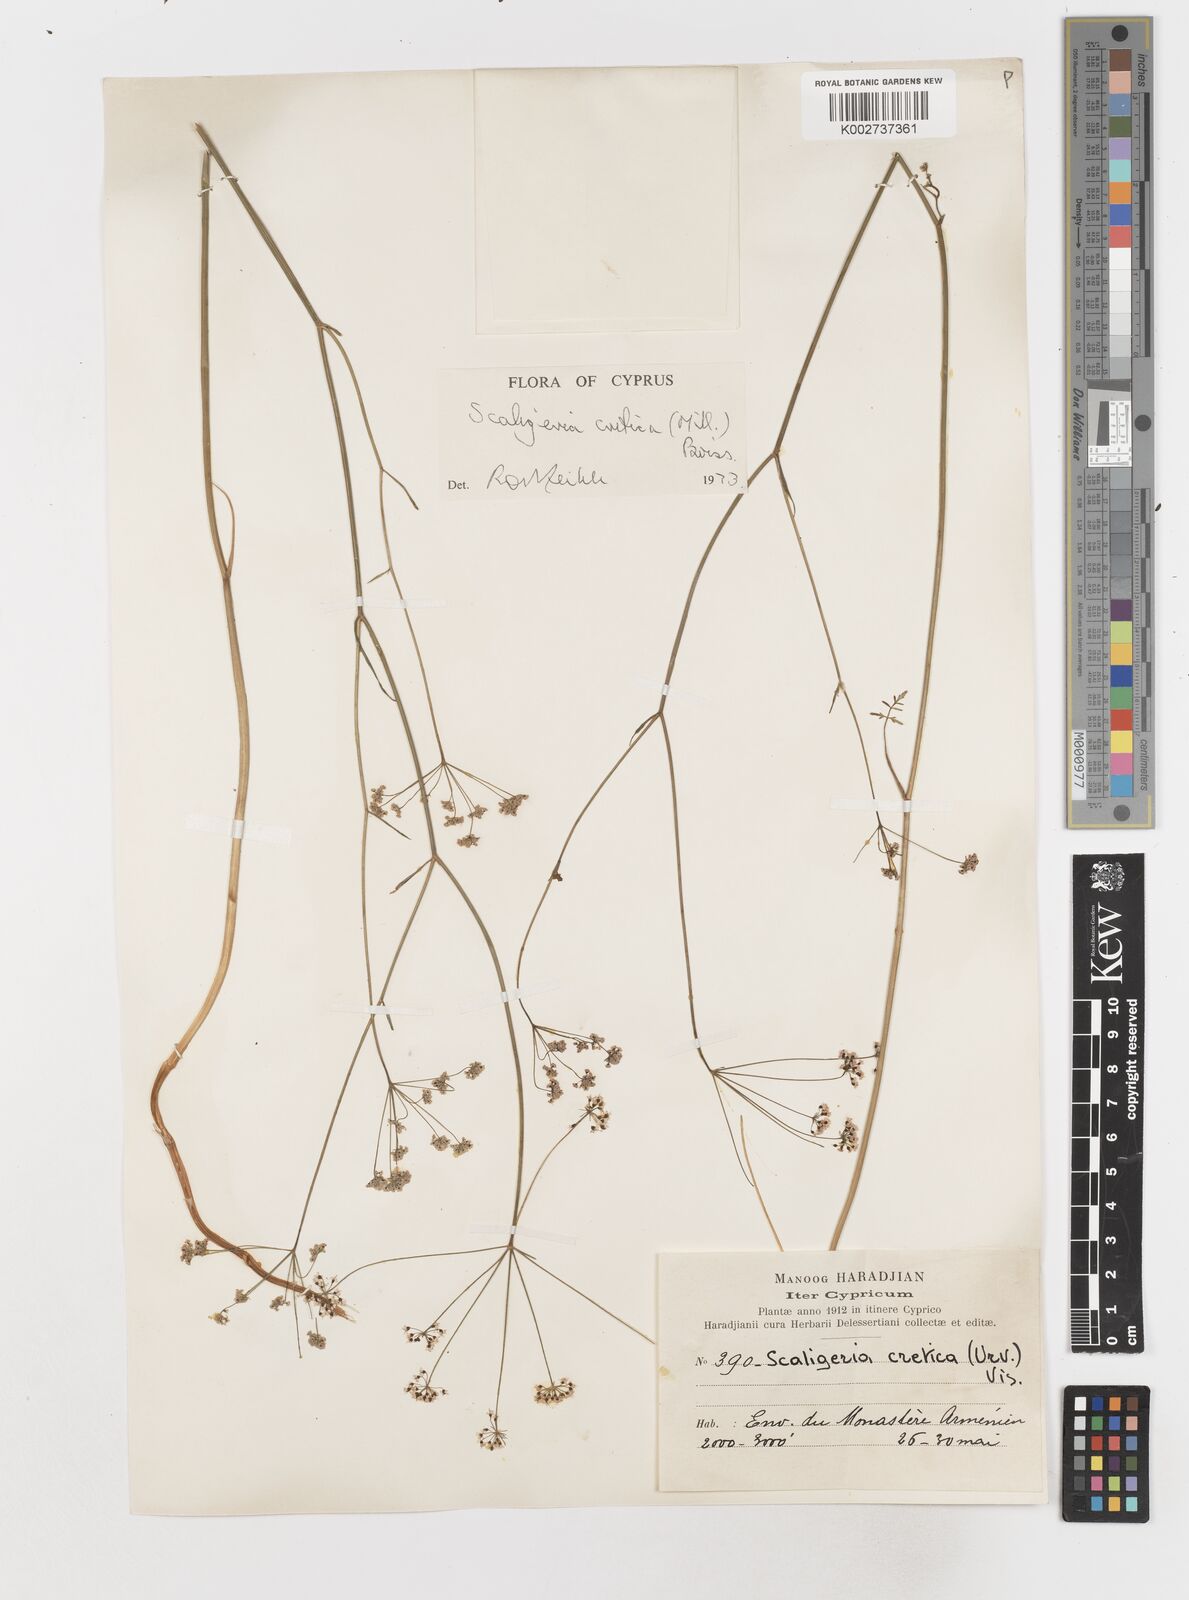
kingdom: Plantae
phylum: Tracheophyta
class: Magnoliopsida
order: Apiales
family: Apiaceae
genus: Scaligeria
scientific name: Scaligeria
